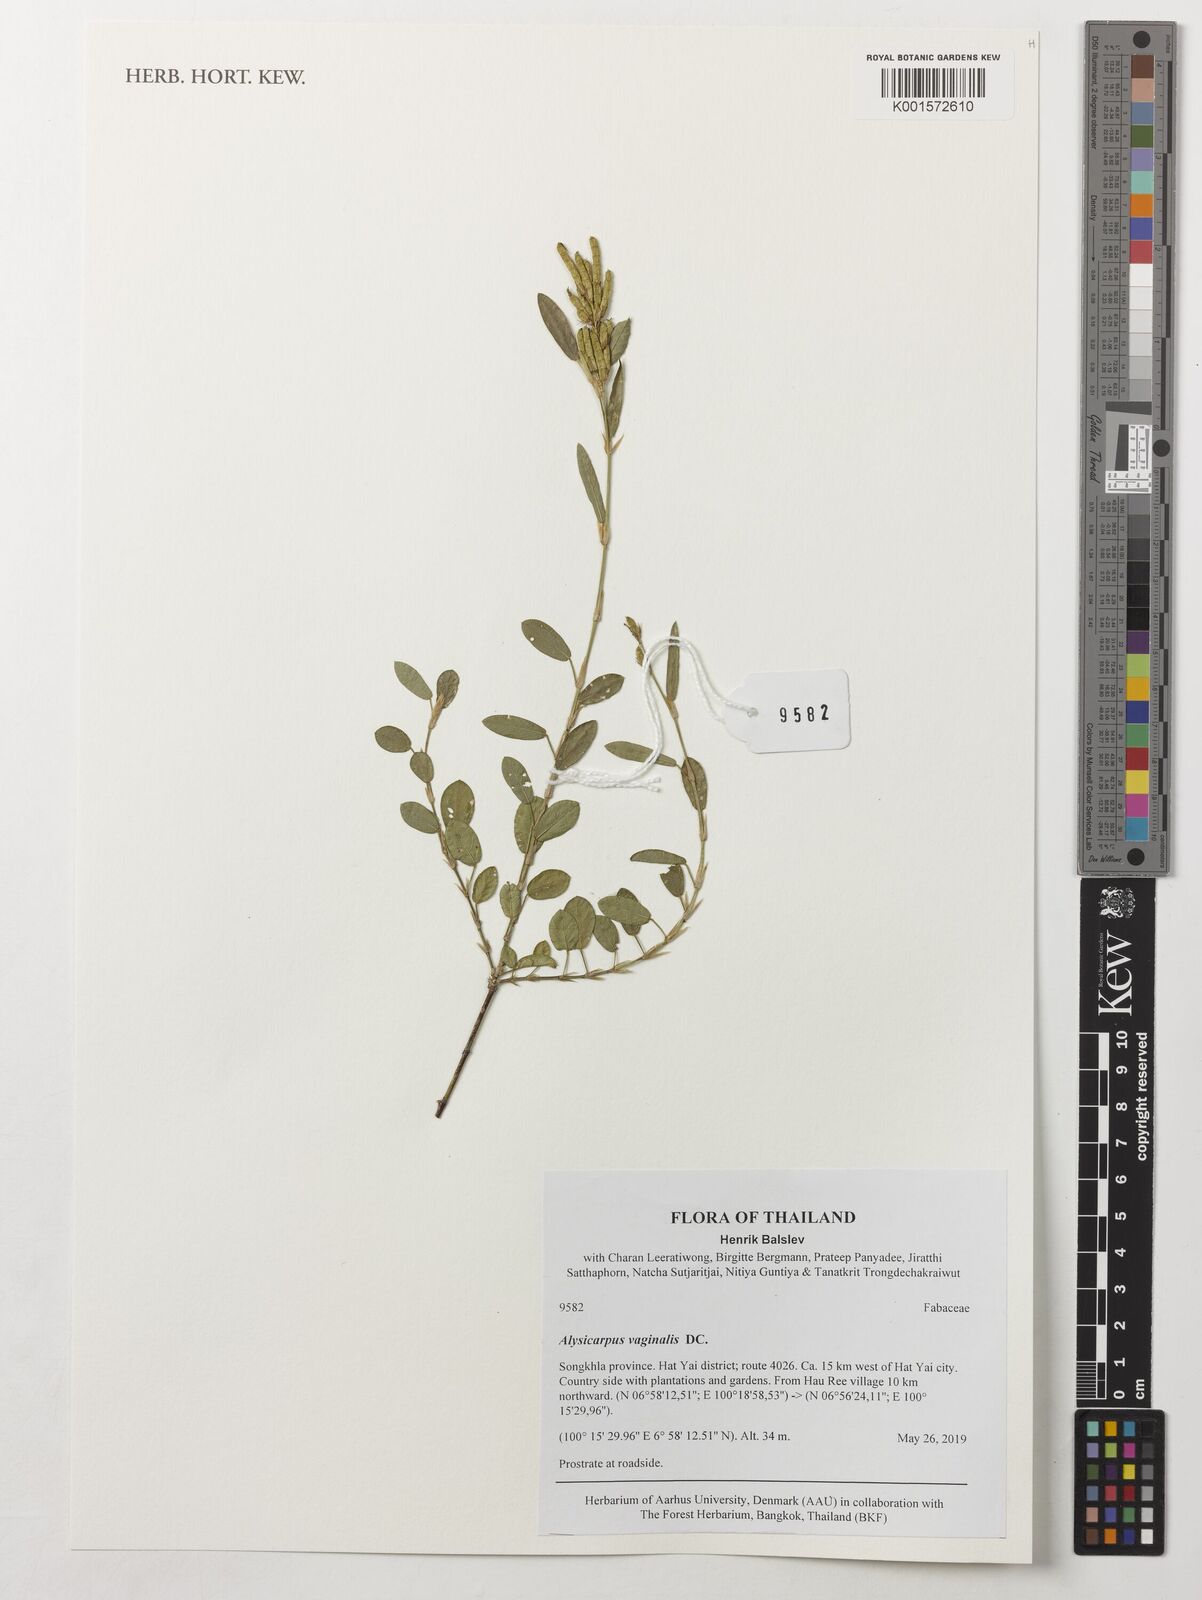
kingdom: Plantae
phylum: Tracheophyta
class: Magnoliopsida
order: Fabales
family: Fabaceae
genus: Alysicarpus
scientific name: Alysicarpus vaginalis
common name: White moneywort
